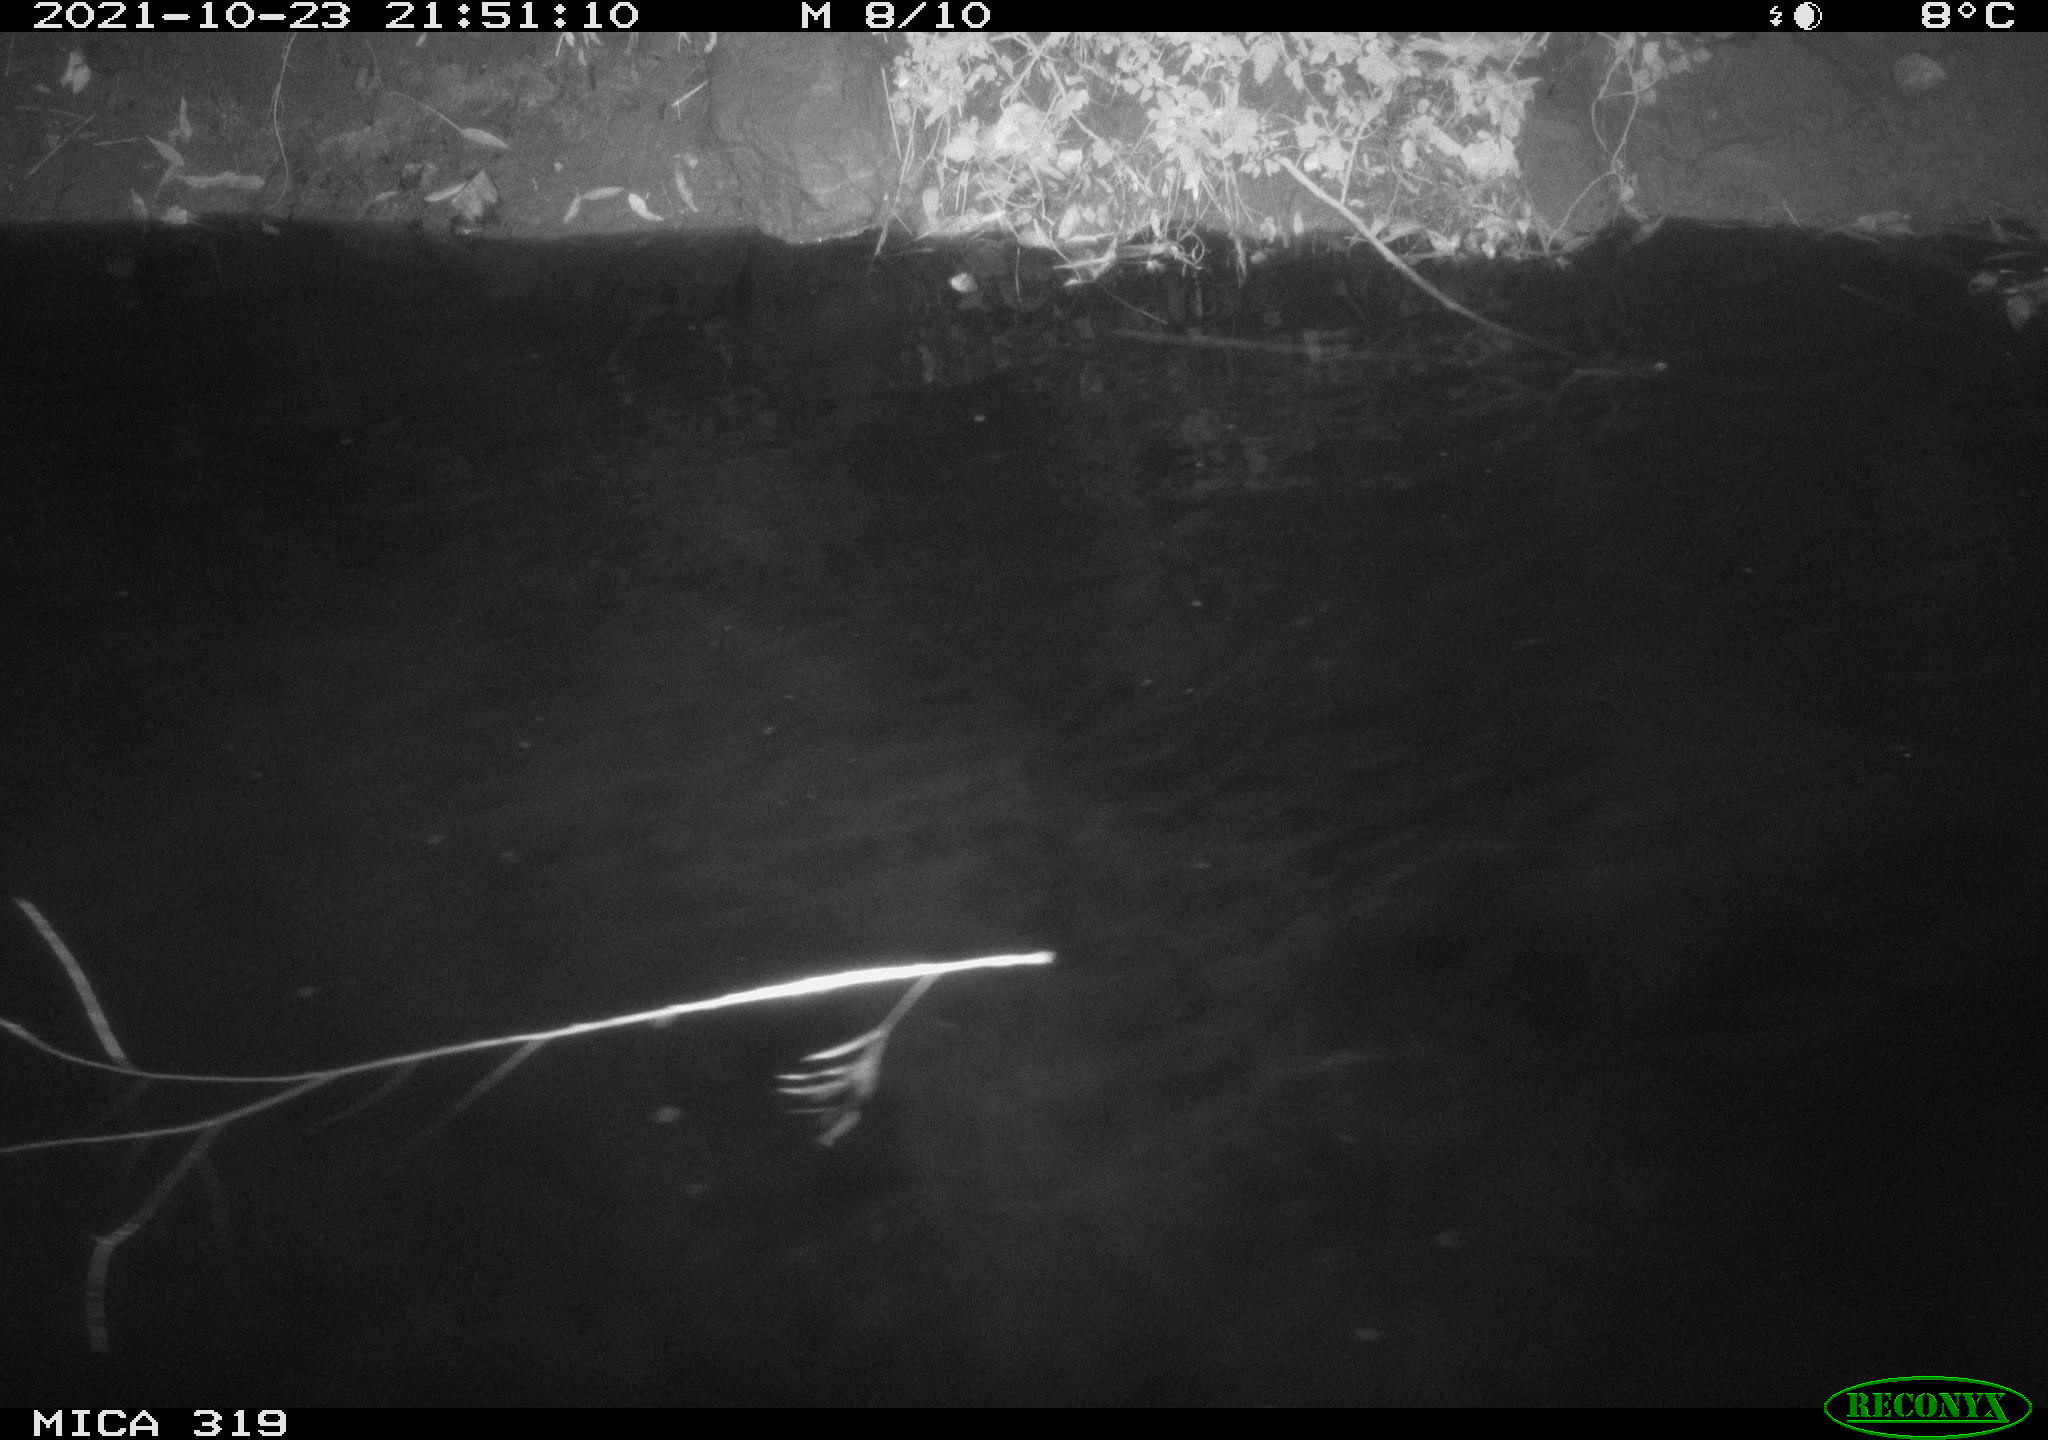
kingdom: Animalia
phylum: Chordata
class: Aves
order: Anseriformes
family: Anatidae
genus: Anas
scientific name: Anas platyrhynchos
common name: Mallard
